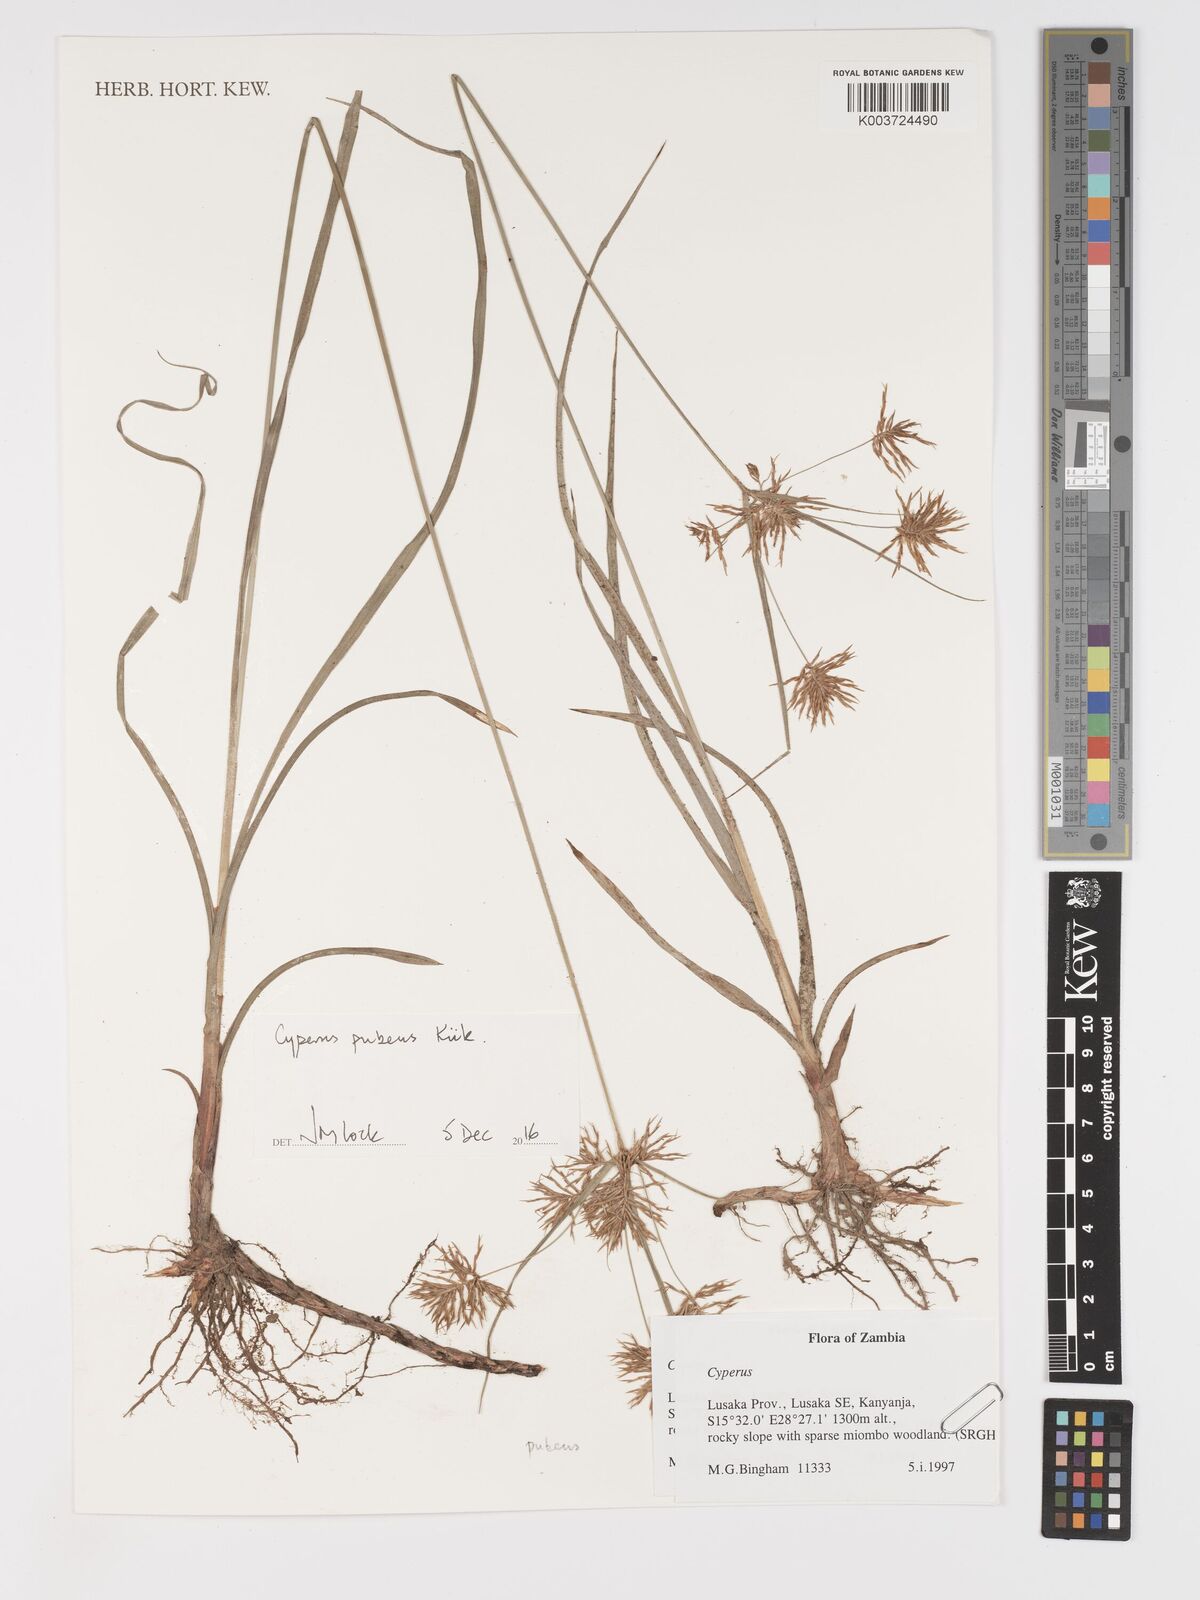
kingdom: Plantae
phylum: Tracheophyta
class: Liliopsida
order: Poales
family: Cyperaceae
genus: Cyperus
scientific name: Cyperus pubens
